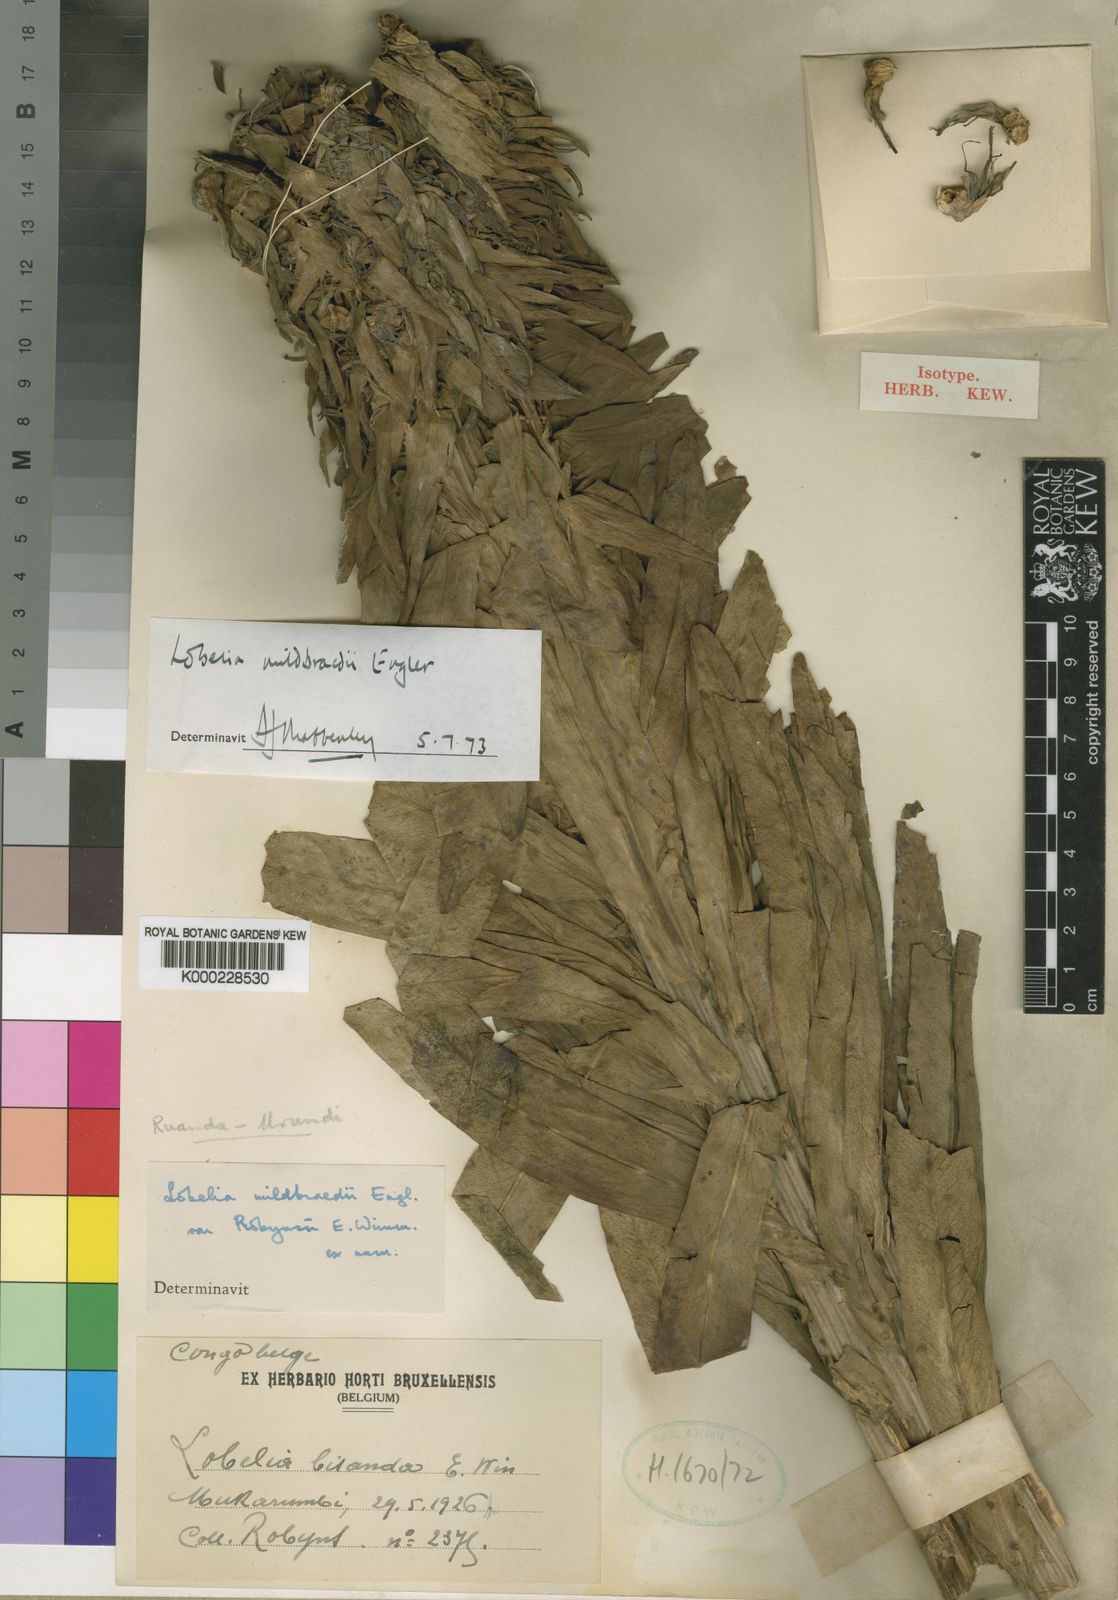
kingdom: Plantae
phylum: Tracheophyta
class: Magnoliopsida
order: Asterales
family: Campanulaceae
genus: Lobelia
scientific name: Lobelia mildbraedii
